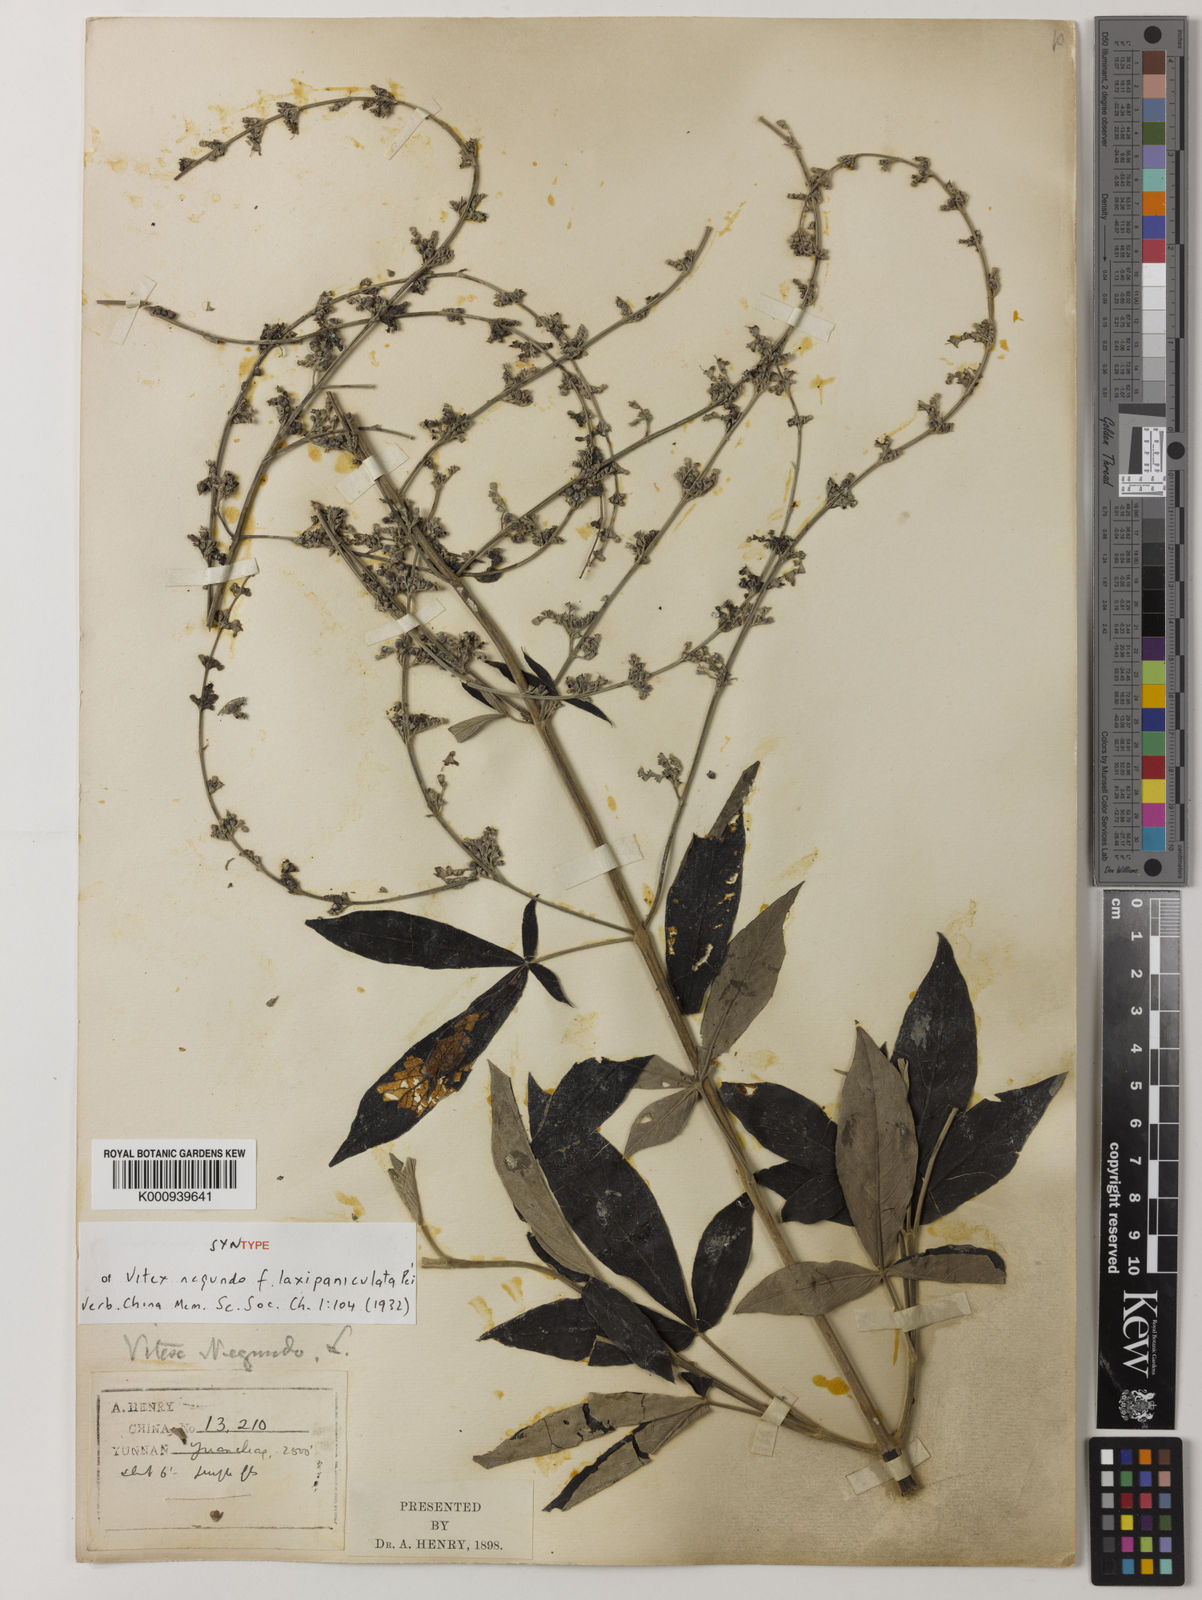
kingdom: Plantae
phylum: Tracheophyta
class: Magnoliopsida
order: Lamiales
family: Lamiaceae
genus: Vitex
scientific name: Vitex negundo
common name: Chinese chastetree
